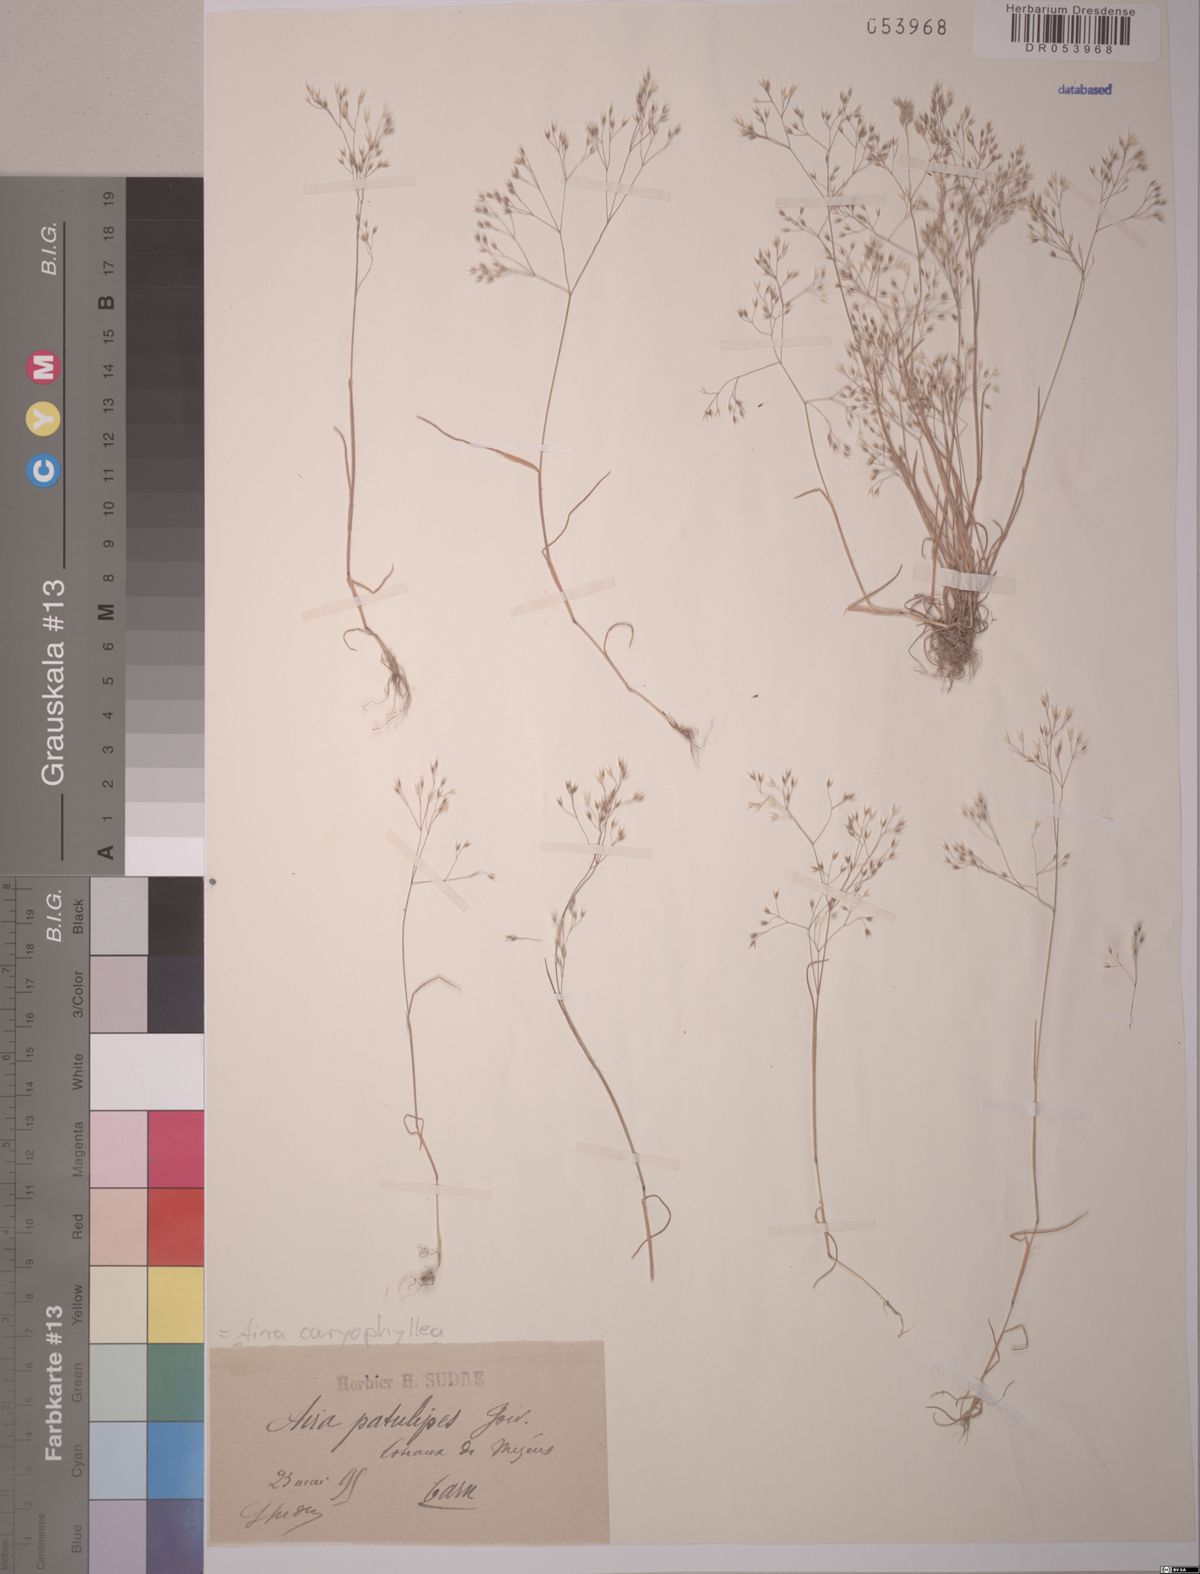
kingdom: Plantae
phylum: Tracheophyta
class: Liliopsida
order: Poales
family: Poaceae
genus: Aira
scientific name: Aira caryophyllea
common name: Silver hairgrass
